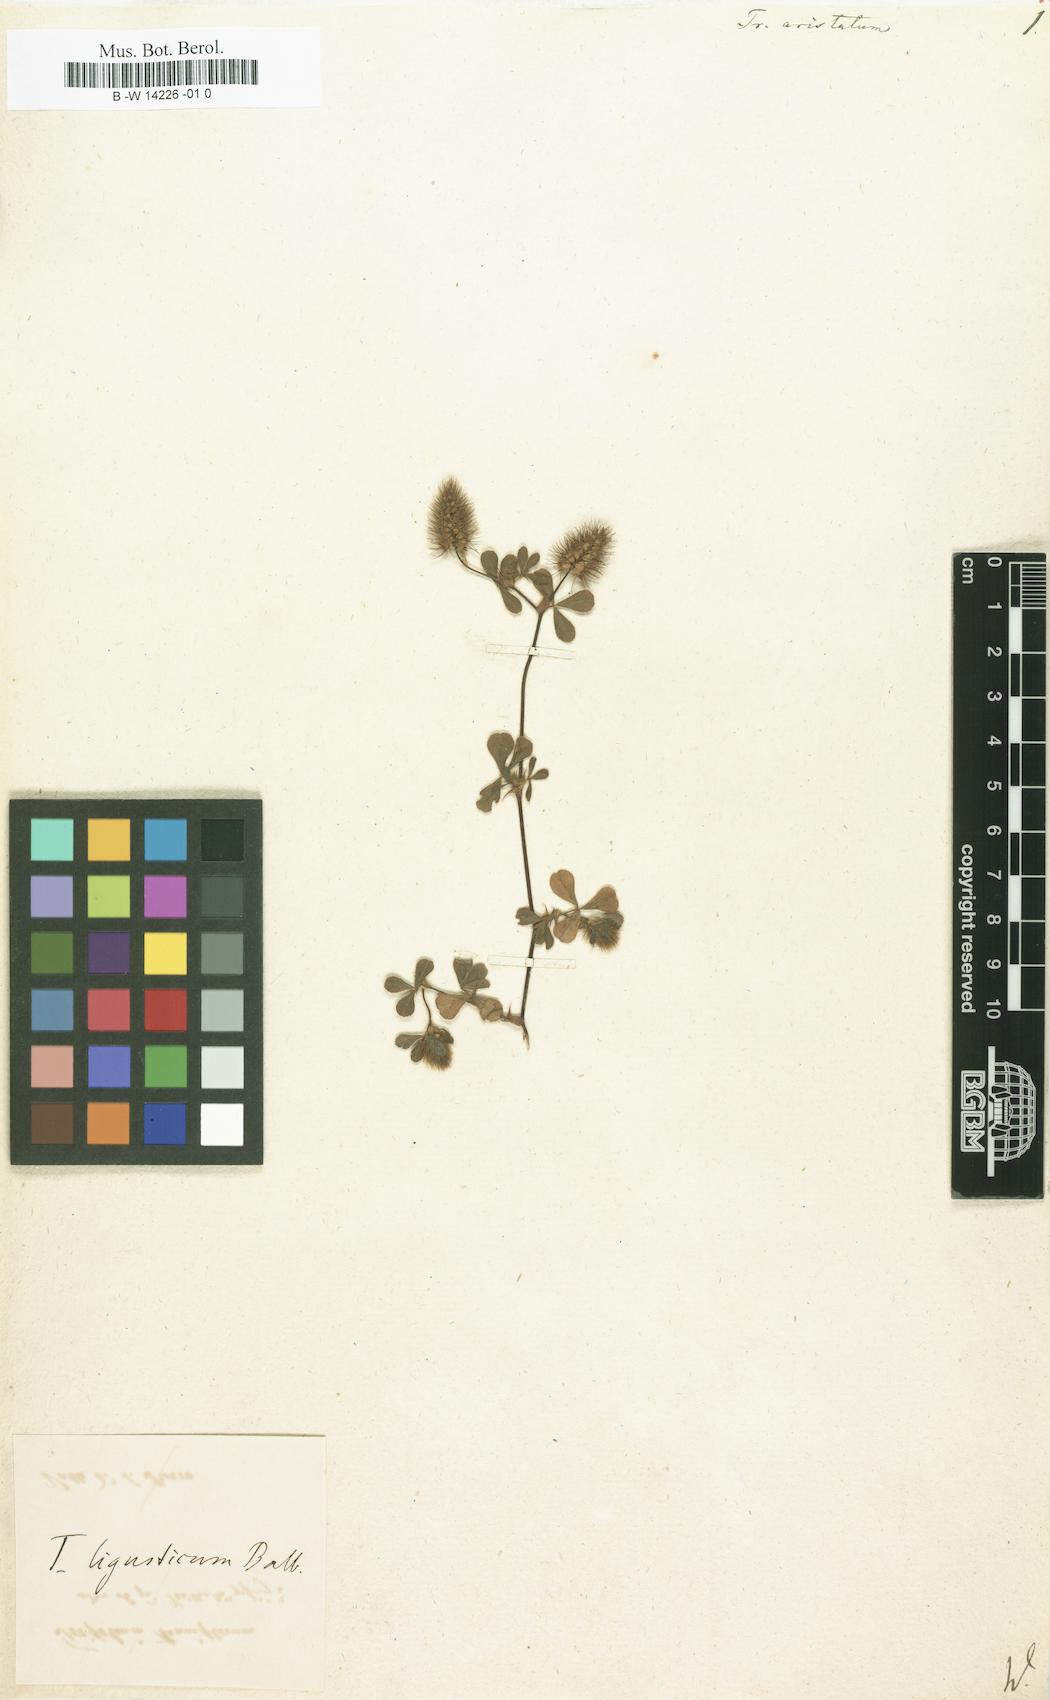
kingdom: Plantae
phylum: Tracheophyta
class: Magnoliopsida
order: Fabales
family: Fabaceae
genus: Trifolium
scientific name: Trifolium
